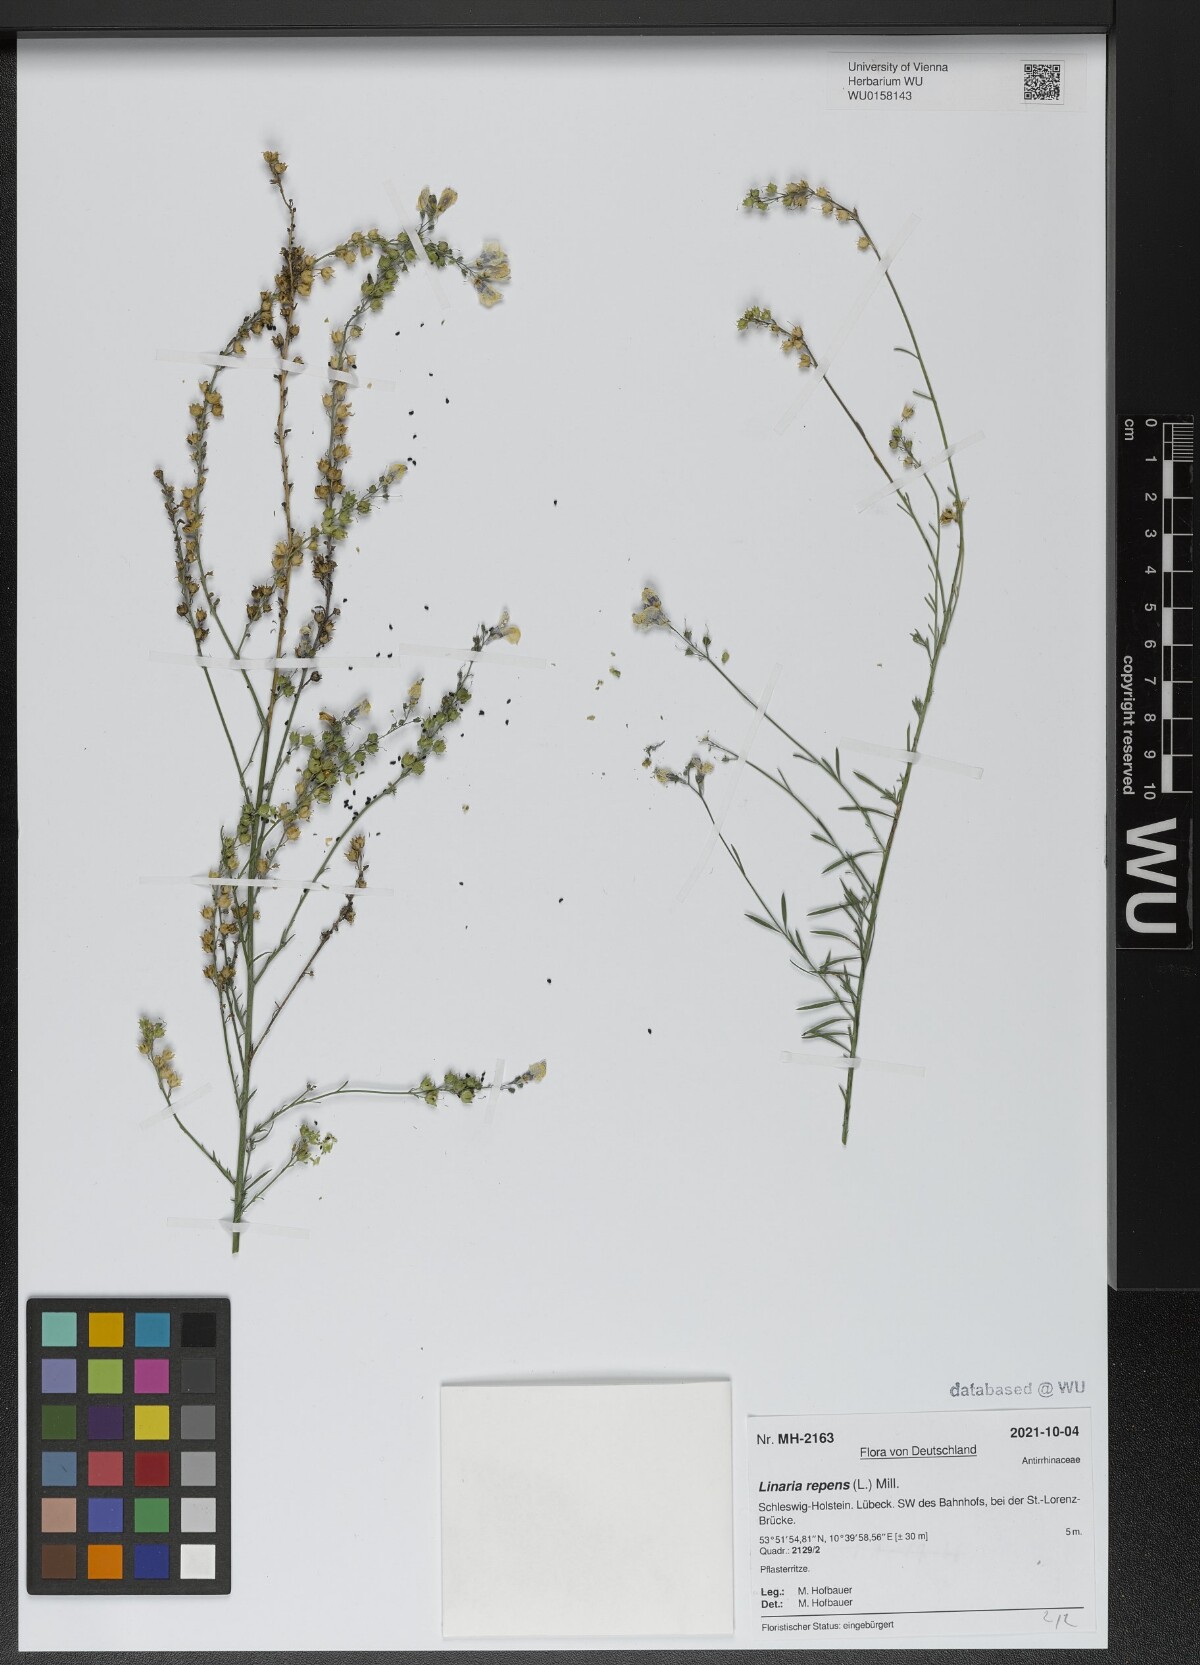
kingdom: Plantae
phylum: Tracheophyta
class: Magnoliopsida
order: Lamiales
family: Plantaginaceae
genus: Linaria
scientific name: Linaria repens
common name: Pale toadflax
